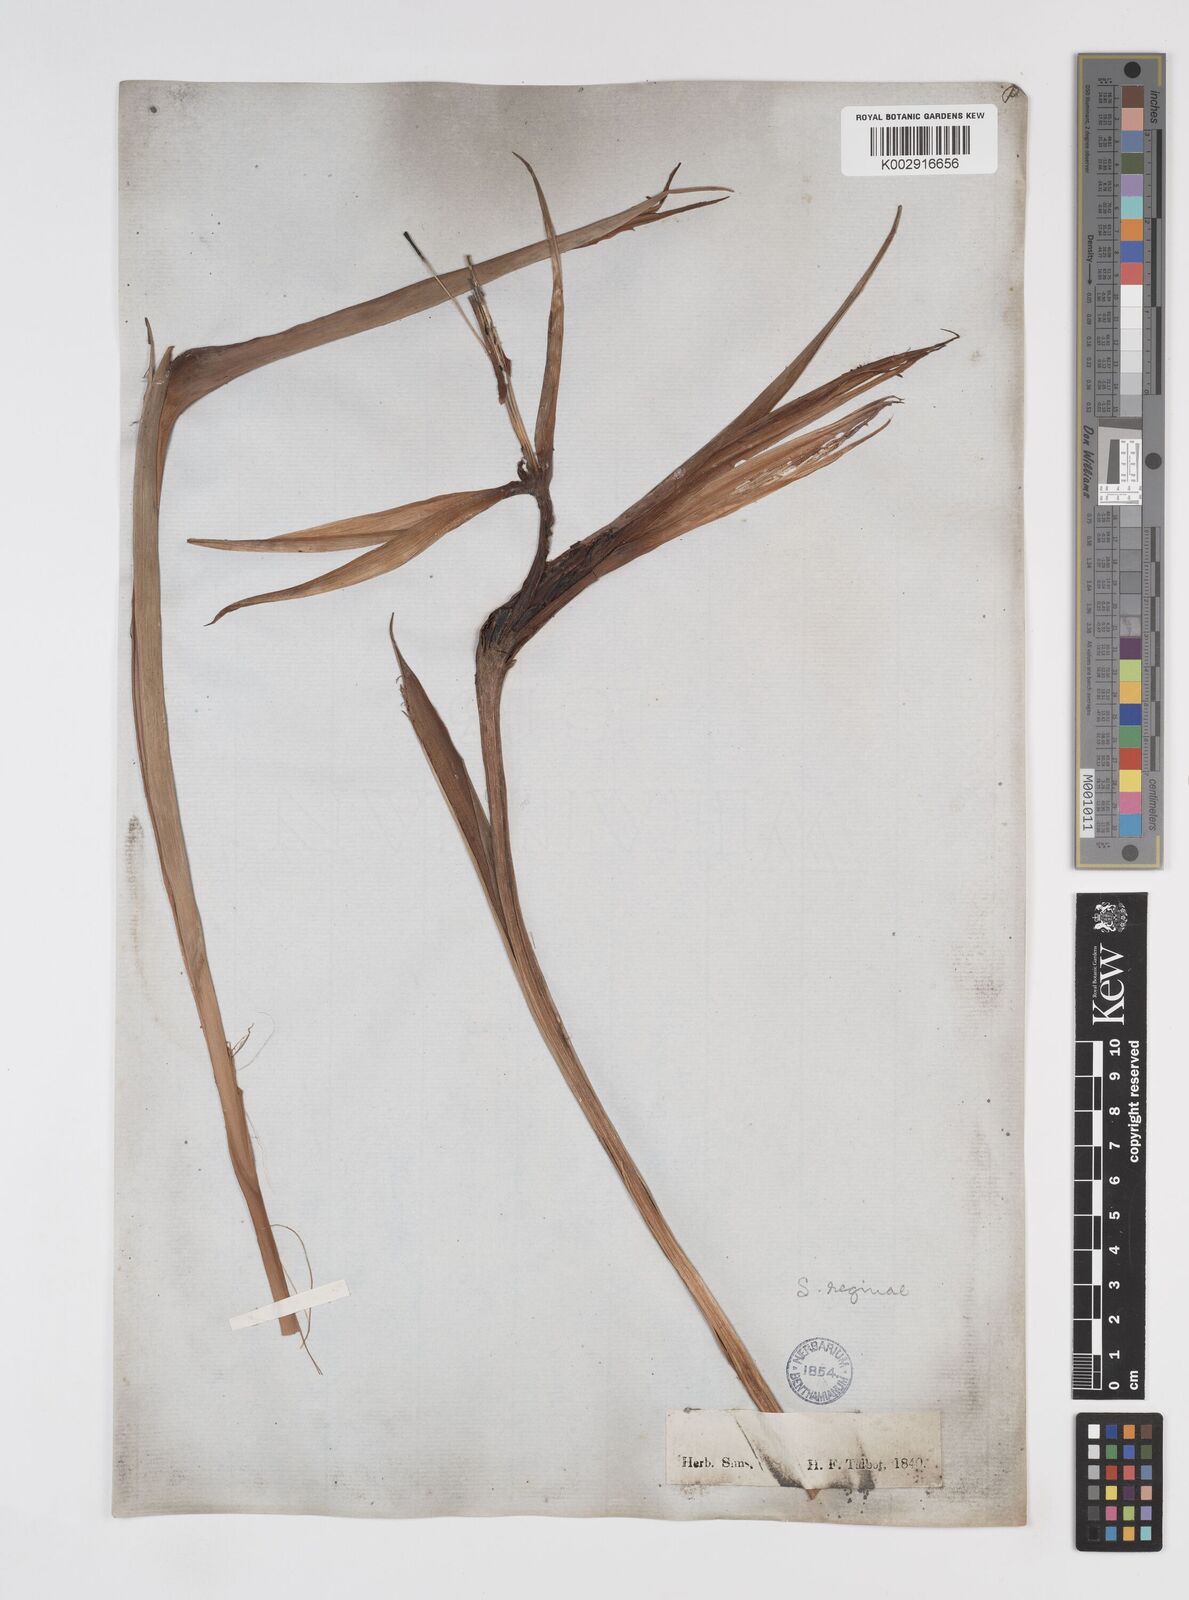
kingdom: Plantae
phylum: Tracheophyta
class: Liliopsida
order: Zingiberales
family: Strelitziaceae
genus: Strelitzia
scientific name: Strelitzia alba
